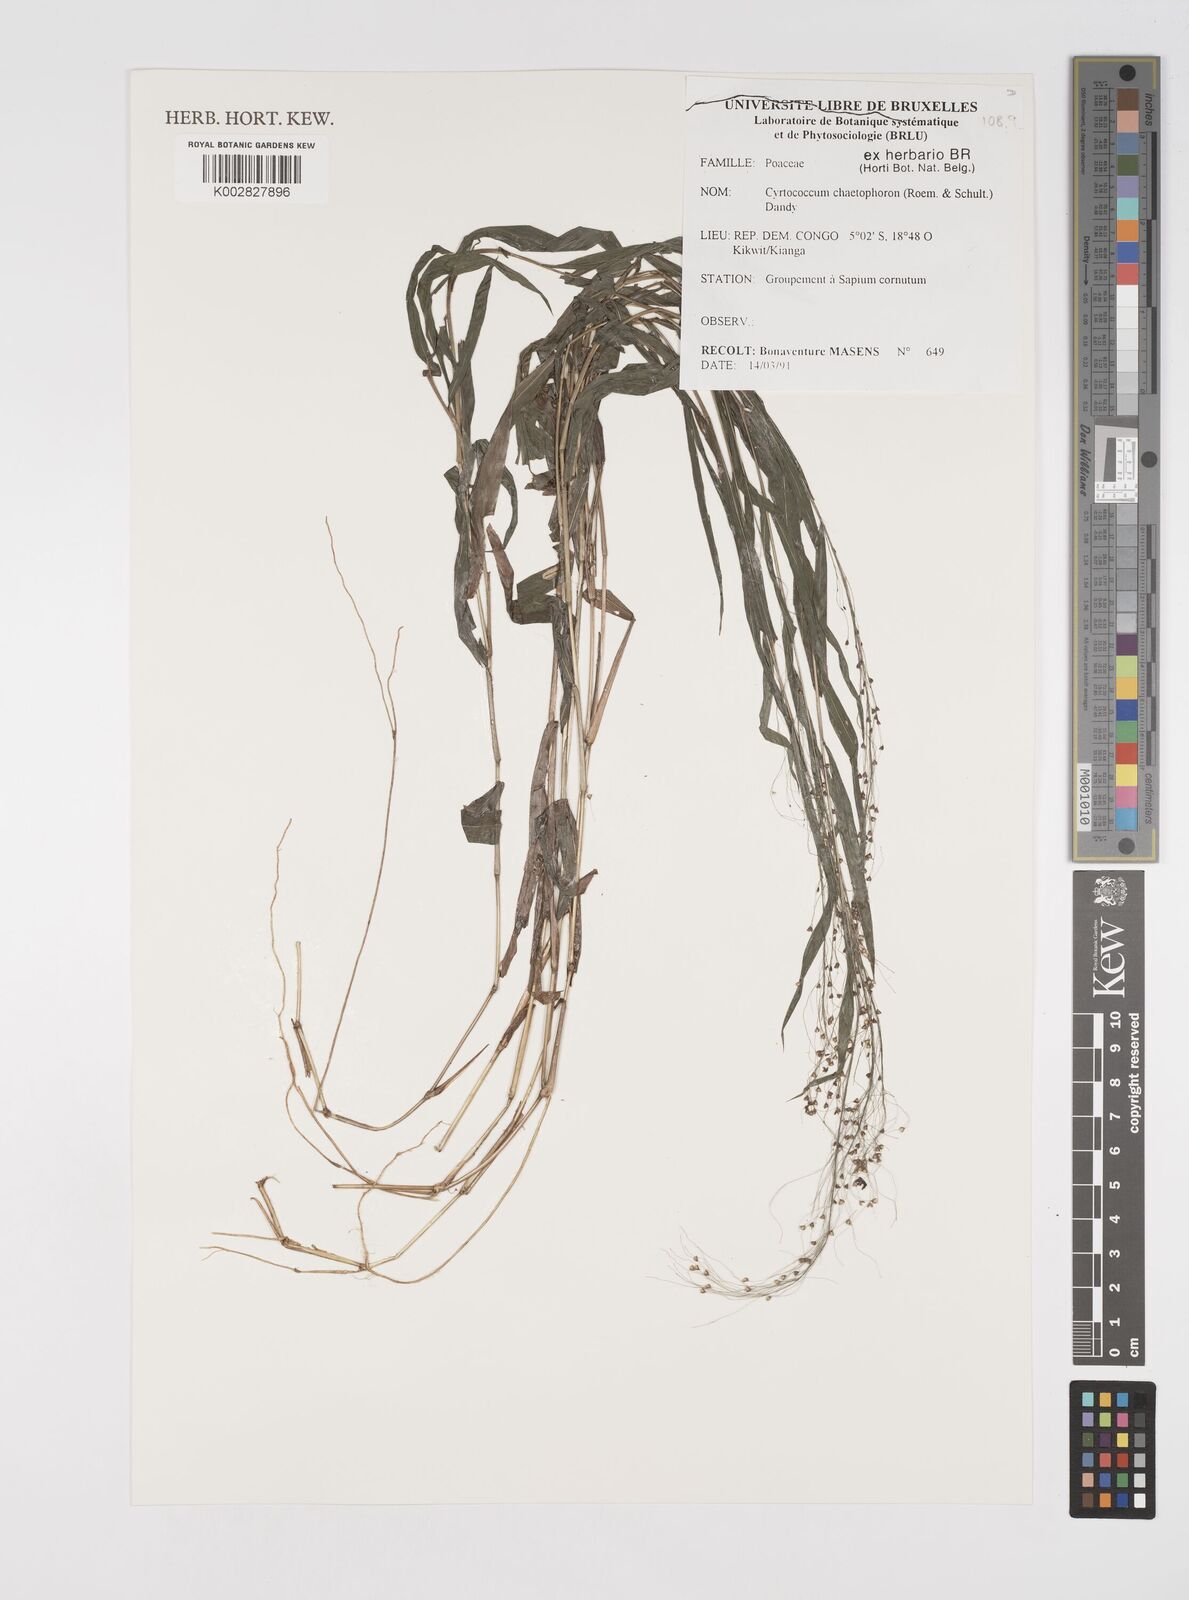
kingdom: Plantae
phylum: Tracheophyta
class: Liliopsida
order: Poales
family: Poaceae
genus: Cyrtococcum
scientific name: Cyrtococcum chaetophoron
